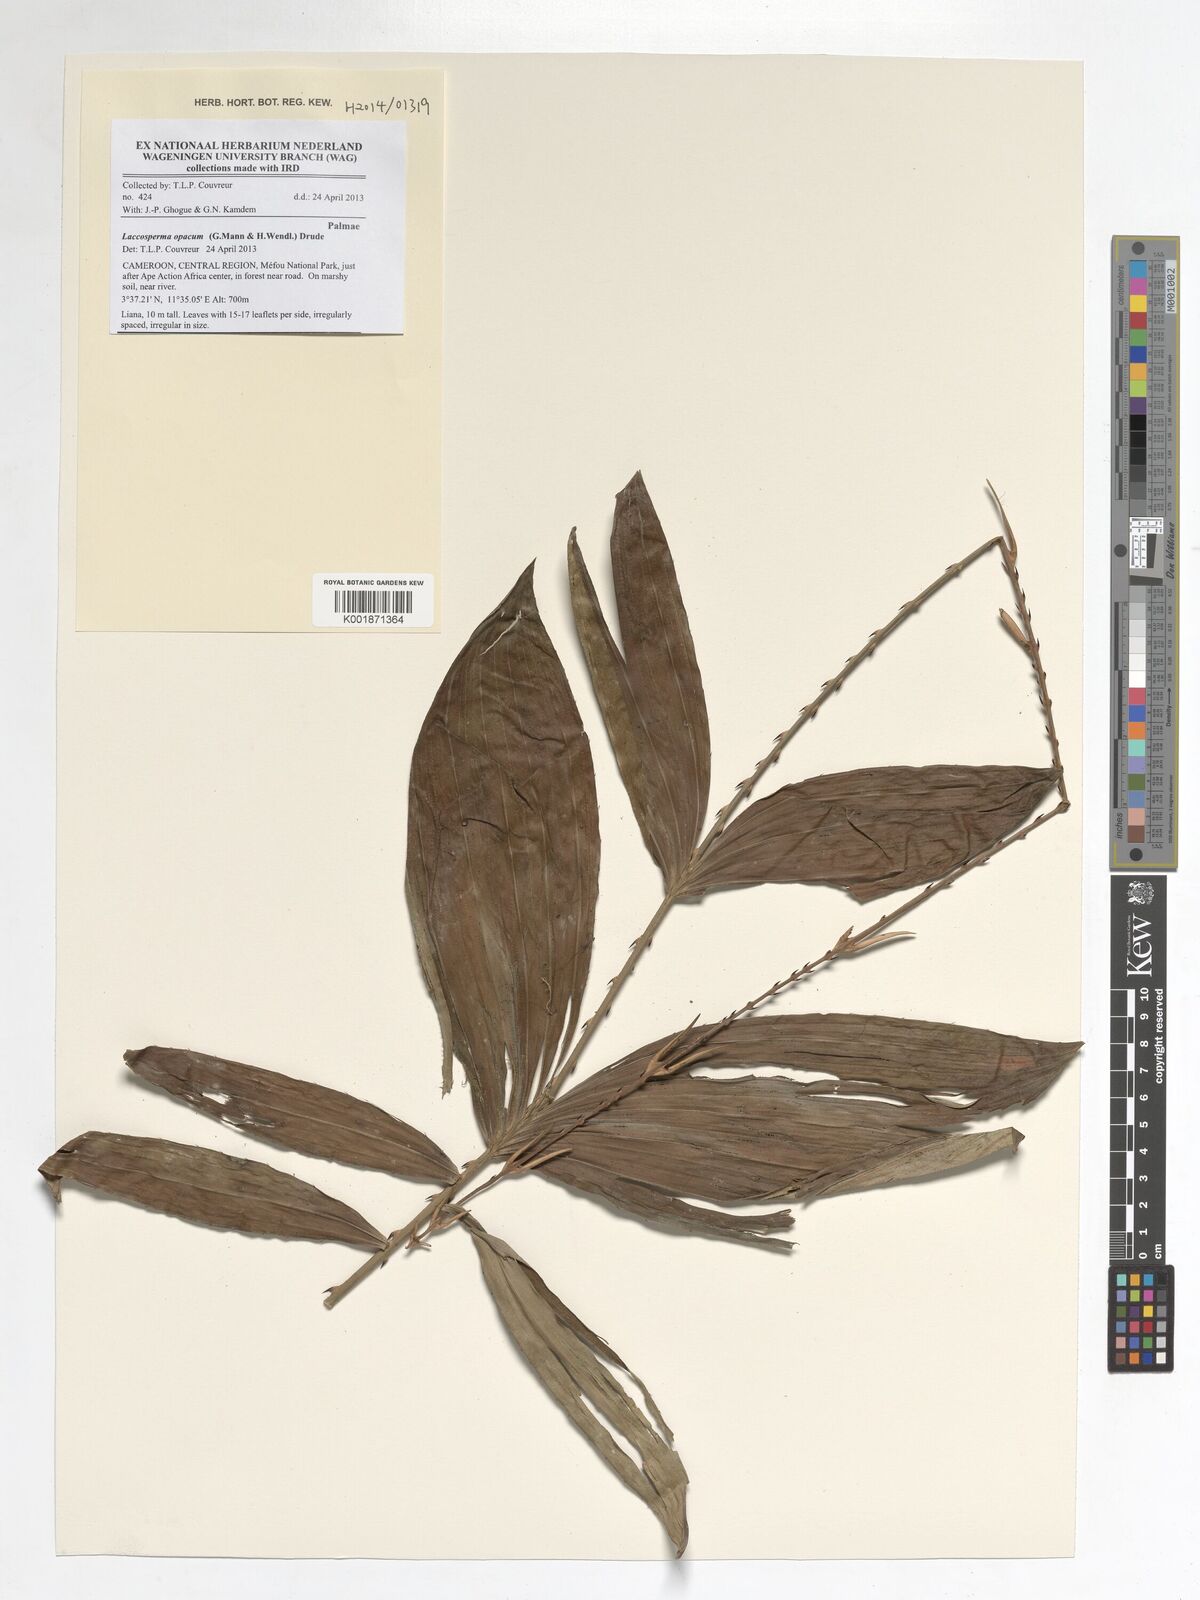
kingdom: Plantae
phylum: Tracheophyta
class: Liliopsida
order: Arecales
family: Arecaceae
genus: Laccosperma
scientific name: Laccosperma opacum
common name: Rattan
